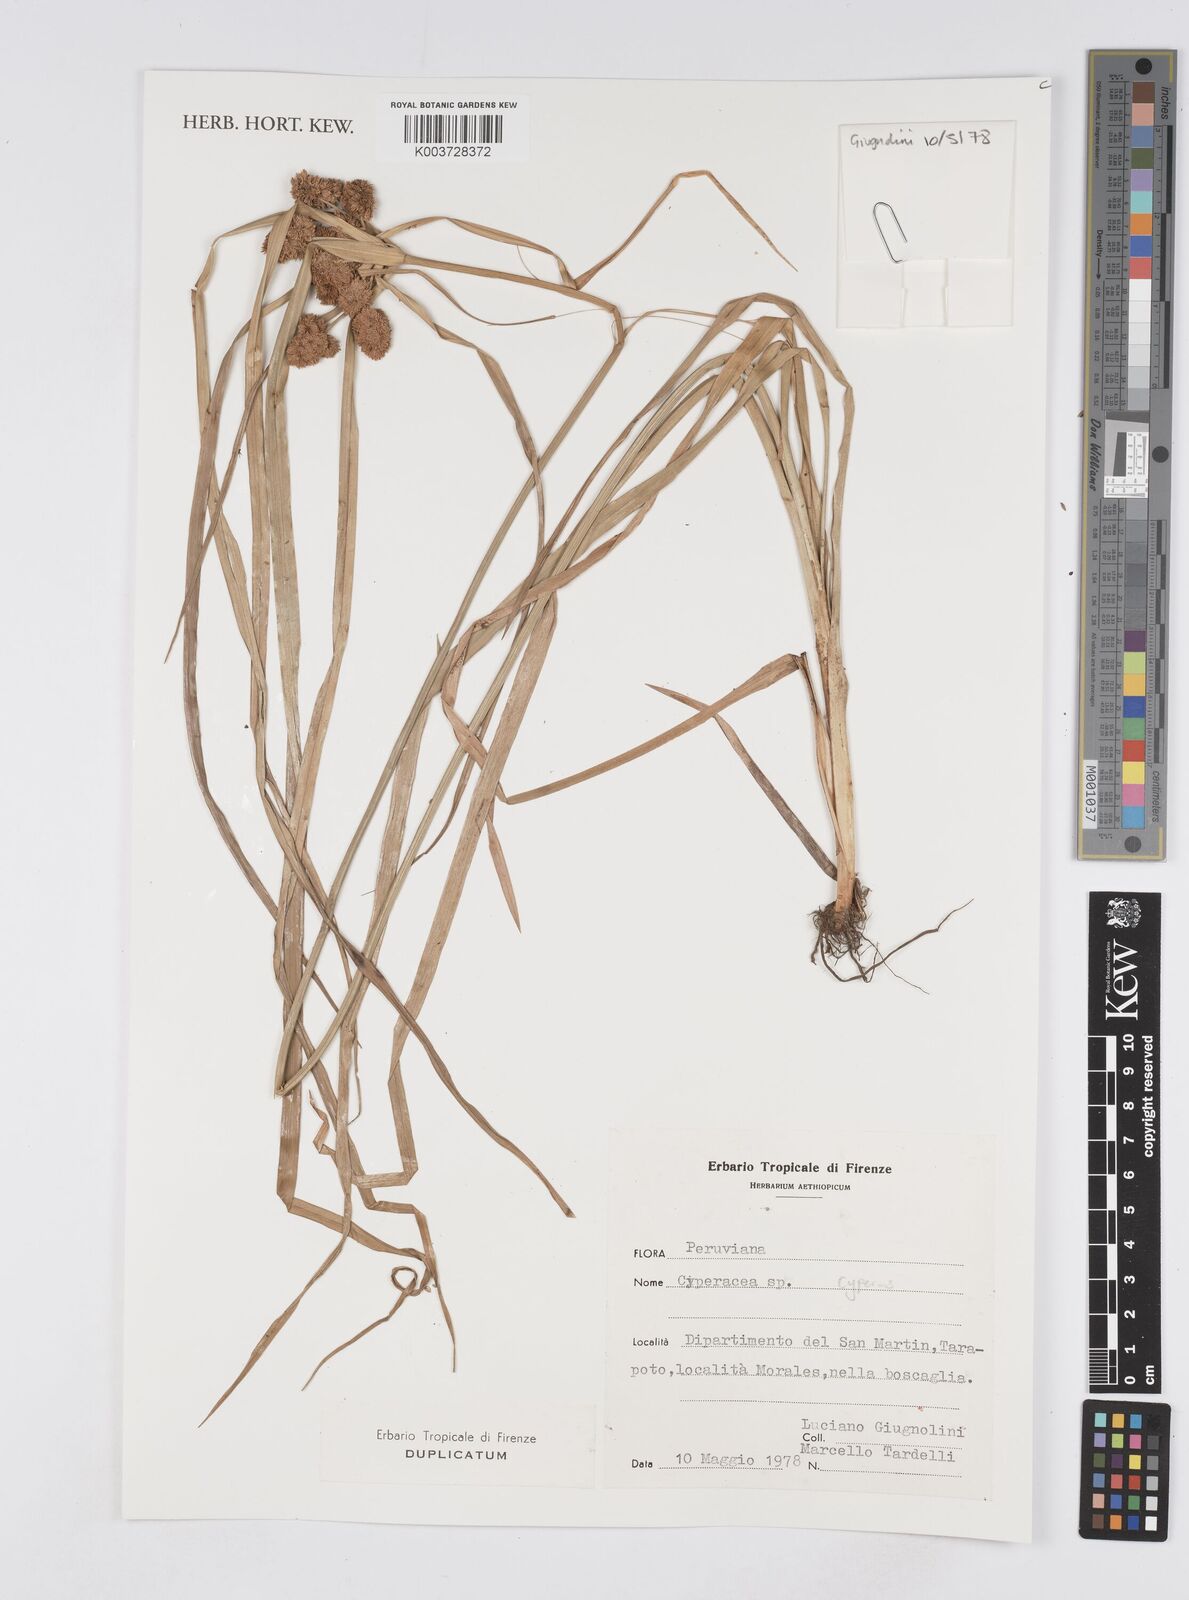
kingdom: Plantae
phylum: Tracheophyta
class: Liliopsida
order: Poales
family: Cyperaceae
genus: Cyperus
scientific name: Cyperus
